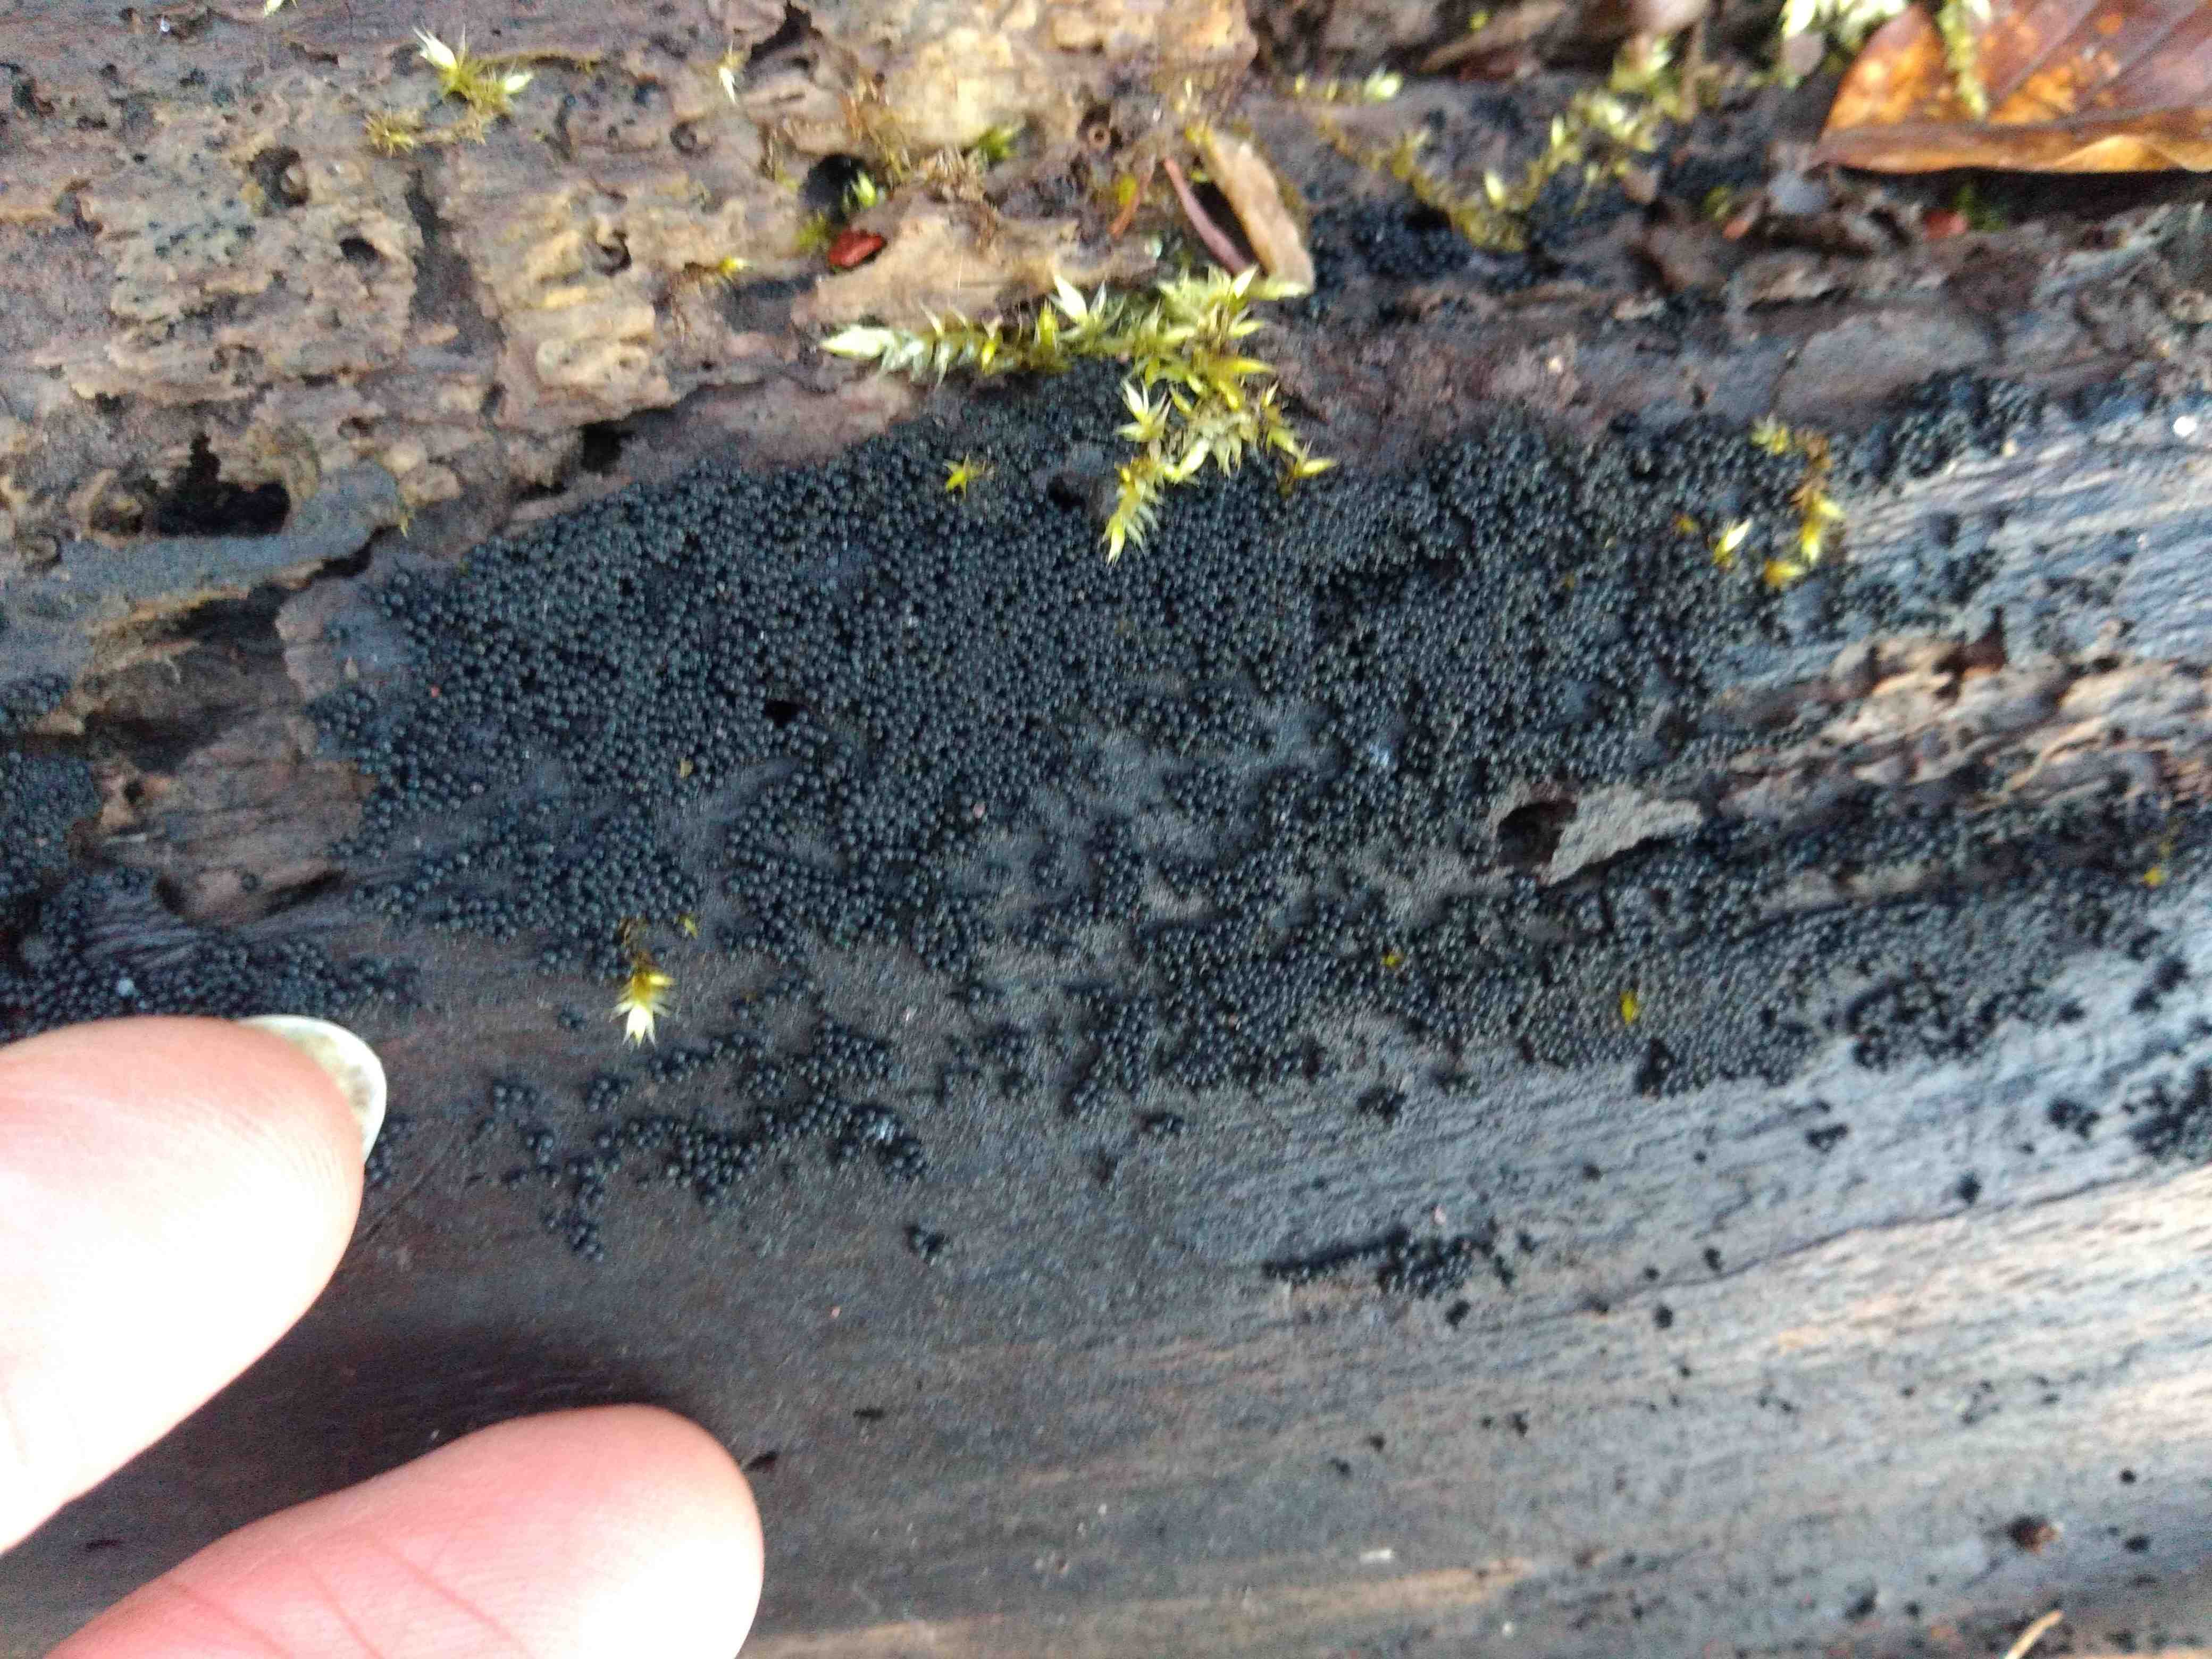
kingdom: Fungi
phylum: Ascomycota
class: Sordariomycetes
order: Sordariales
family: Helminthosphaeriaceae
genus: Ruzenia
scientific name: Ruzenia spermoides
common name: glat børstekerne
